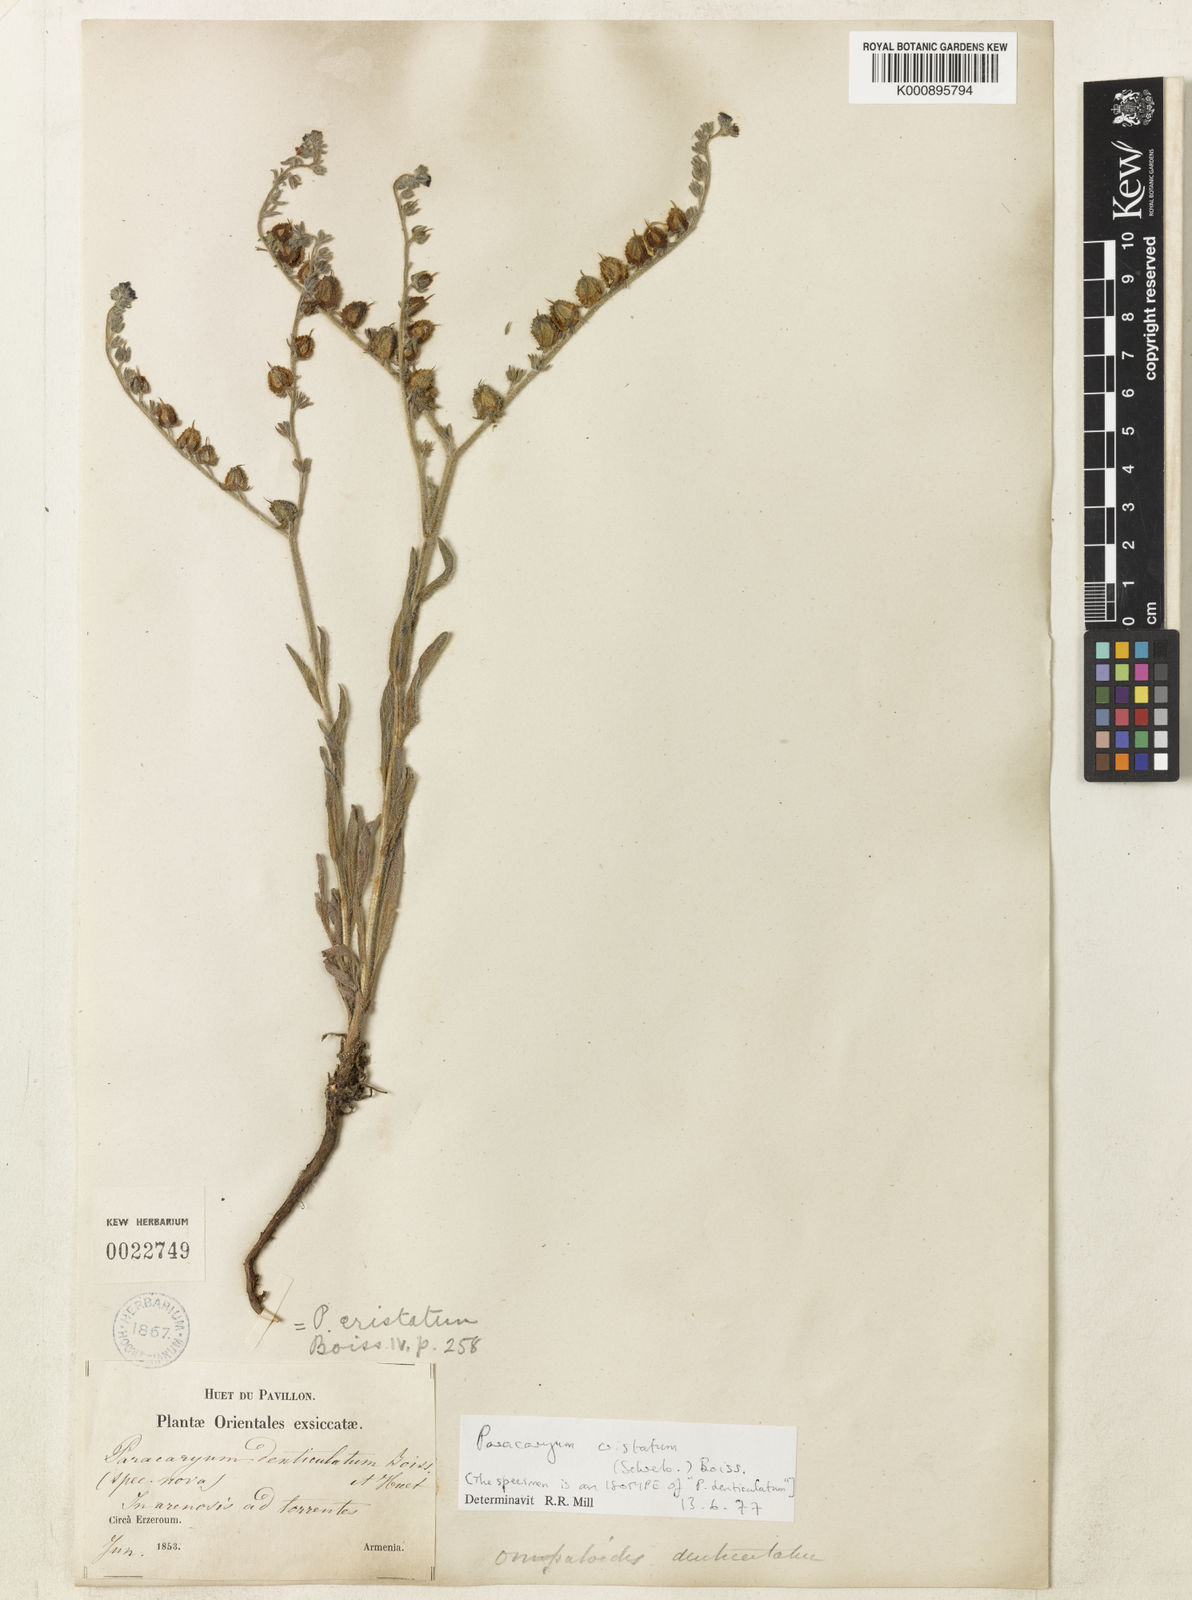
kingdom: Plantae
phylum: Tracheophyta
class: Magnoliopsida
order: Boraginales
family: Boraginaceae
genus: Paracaryum
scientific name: Paracaryum cristatum
